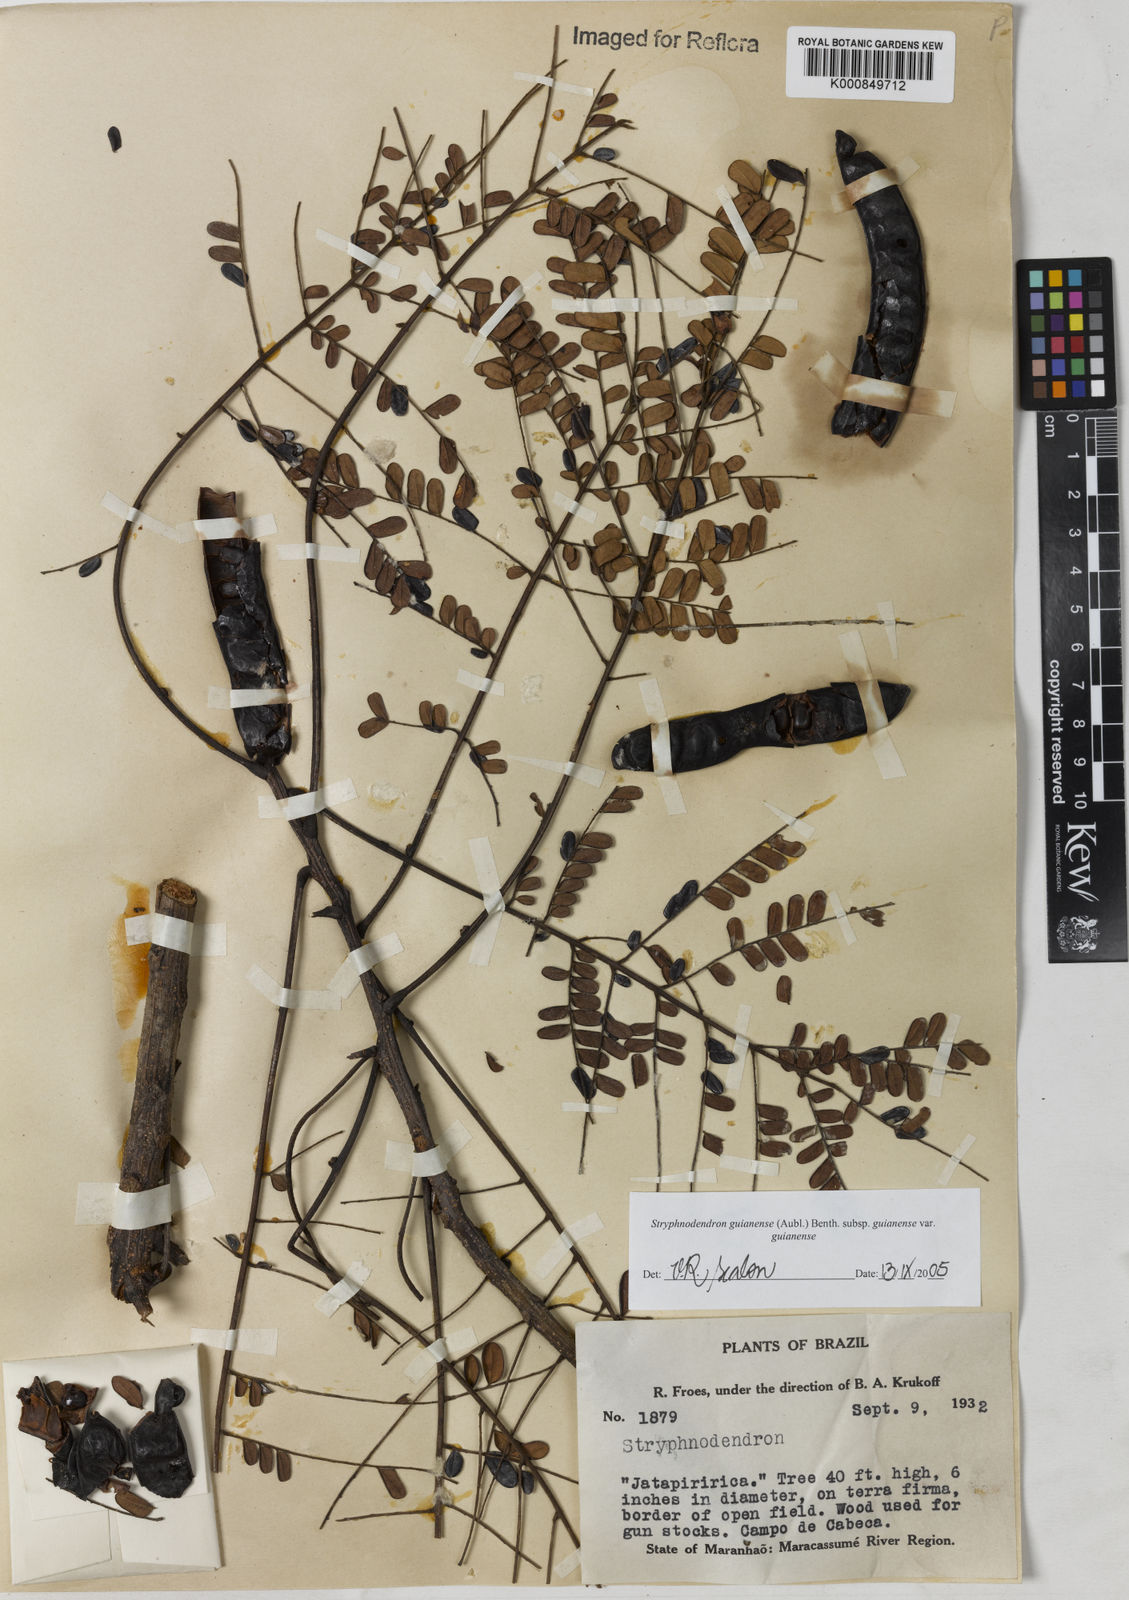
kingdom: Plantae
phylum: Tracheophyta
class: Magnoliopsida
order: Fabales
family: Fabaceae
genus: Stryphnodendron
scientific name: Stryphnodendron guianense
